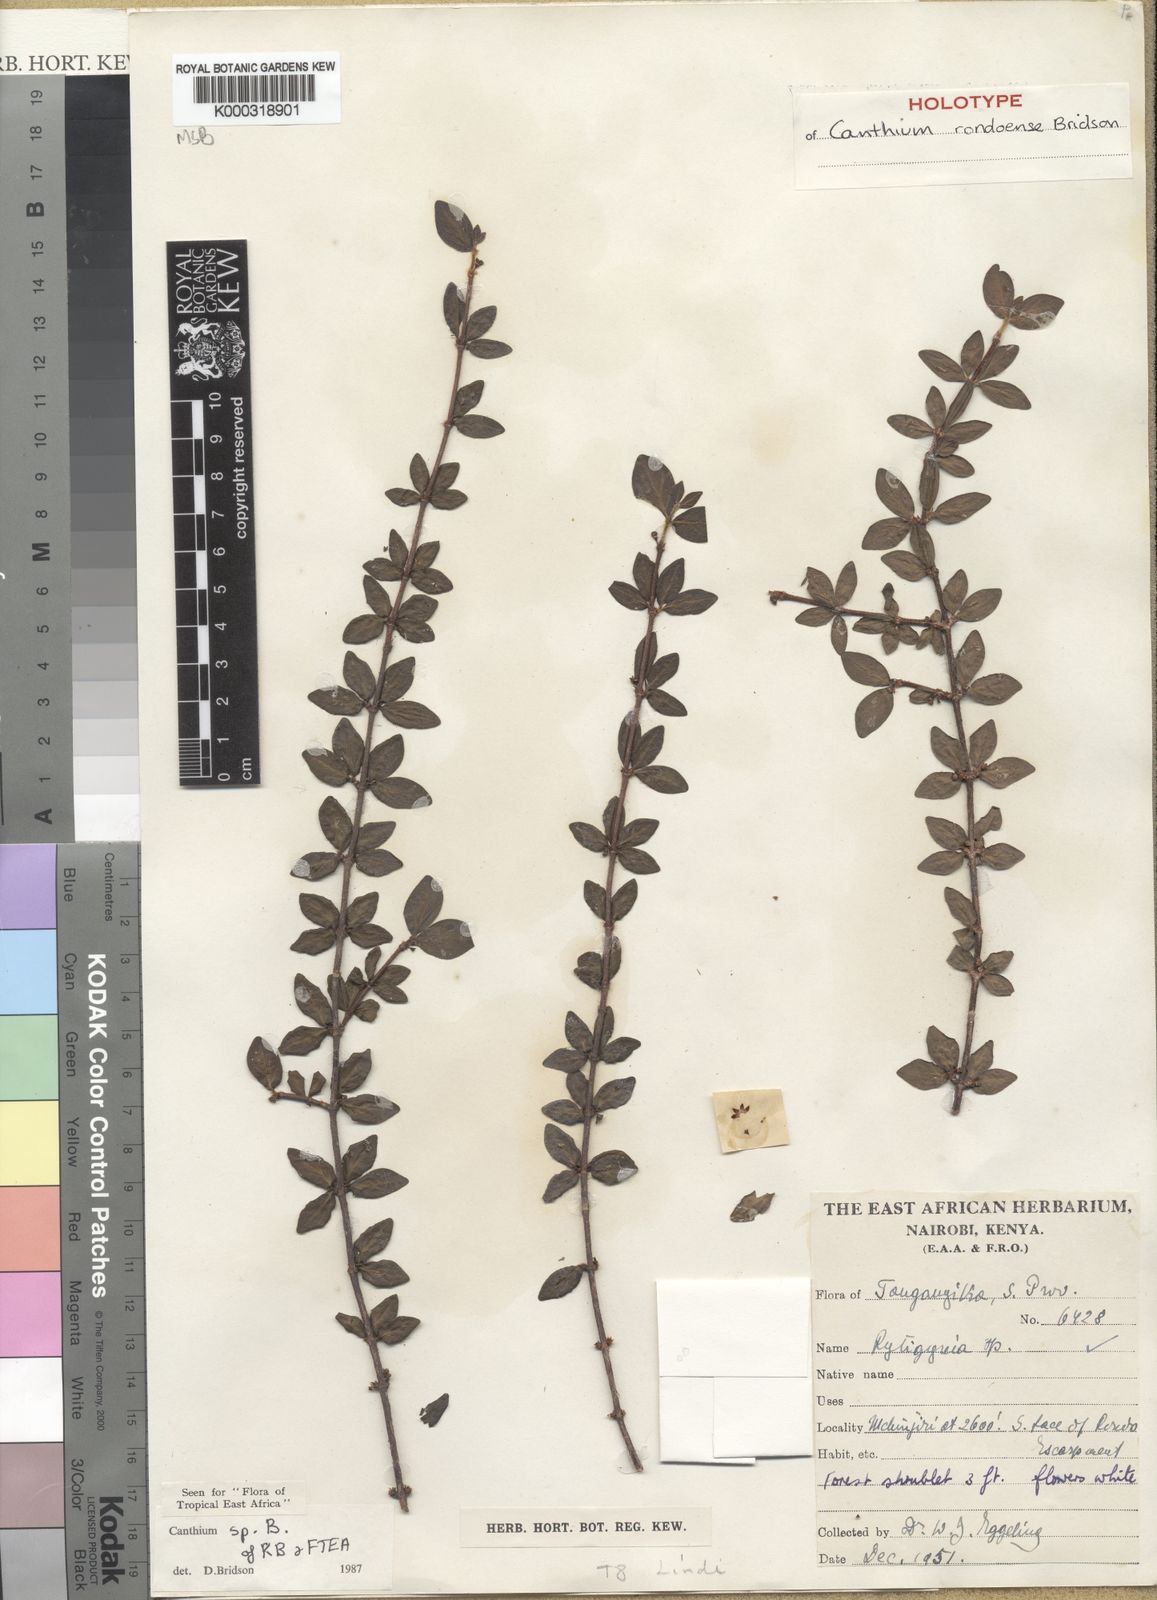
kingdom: Plantae
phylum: Tracheophyta
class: Magnoliopsida
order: Gentianales
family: Rubiaceae
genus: Afrocanthium
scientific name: Afrocanthium rondoense
